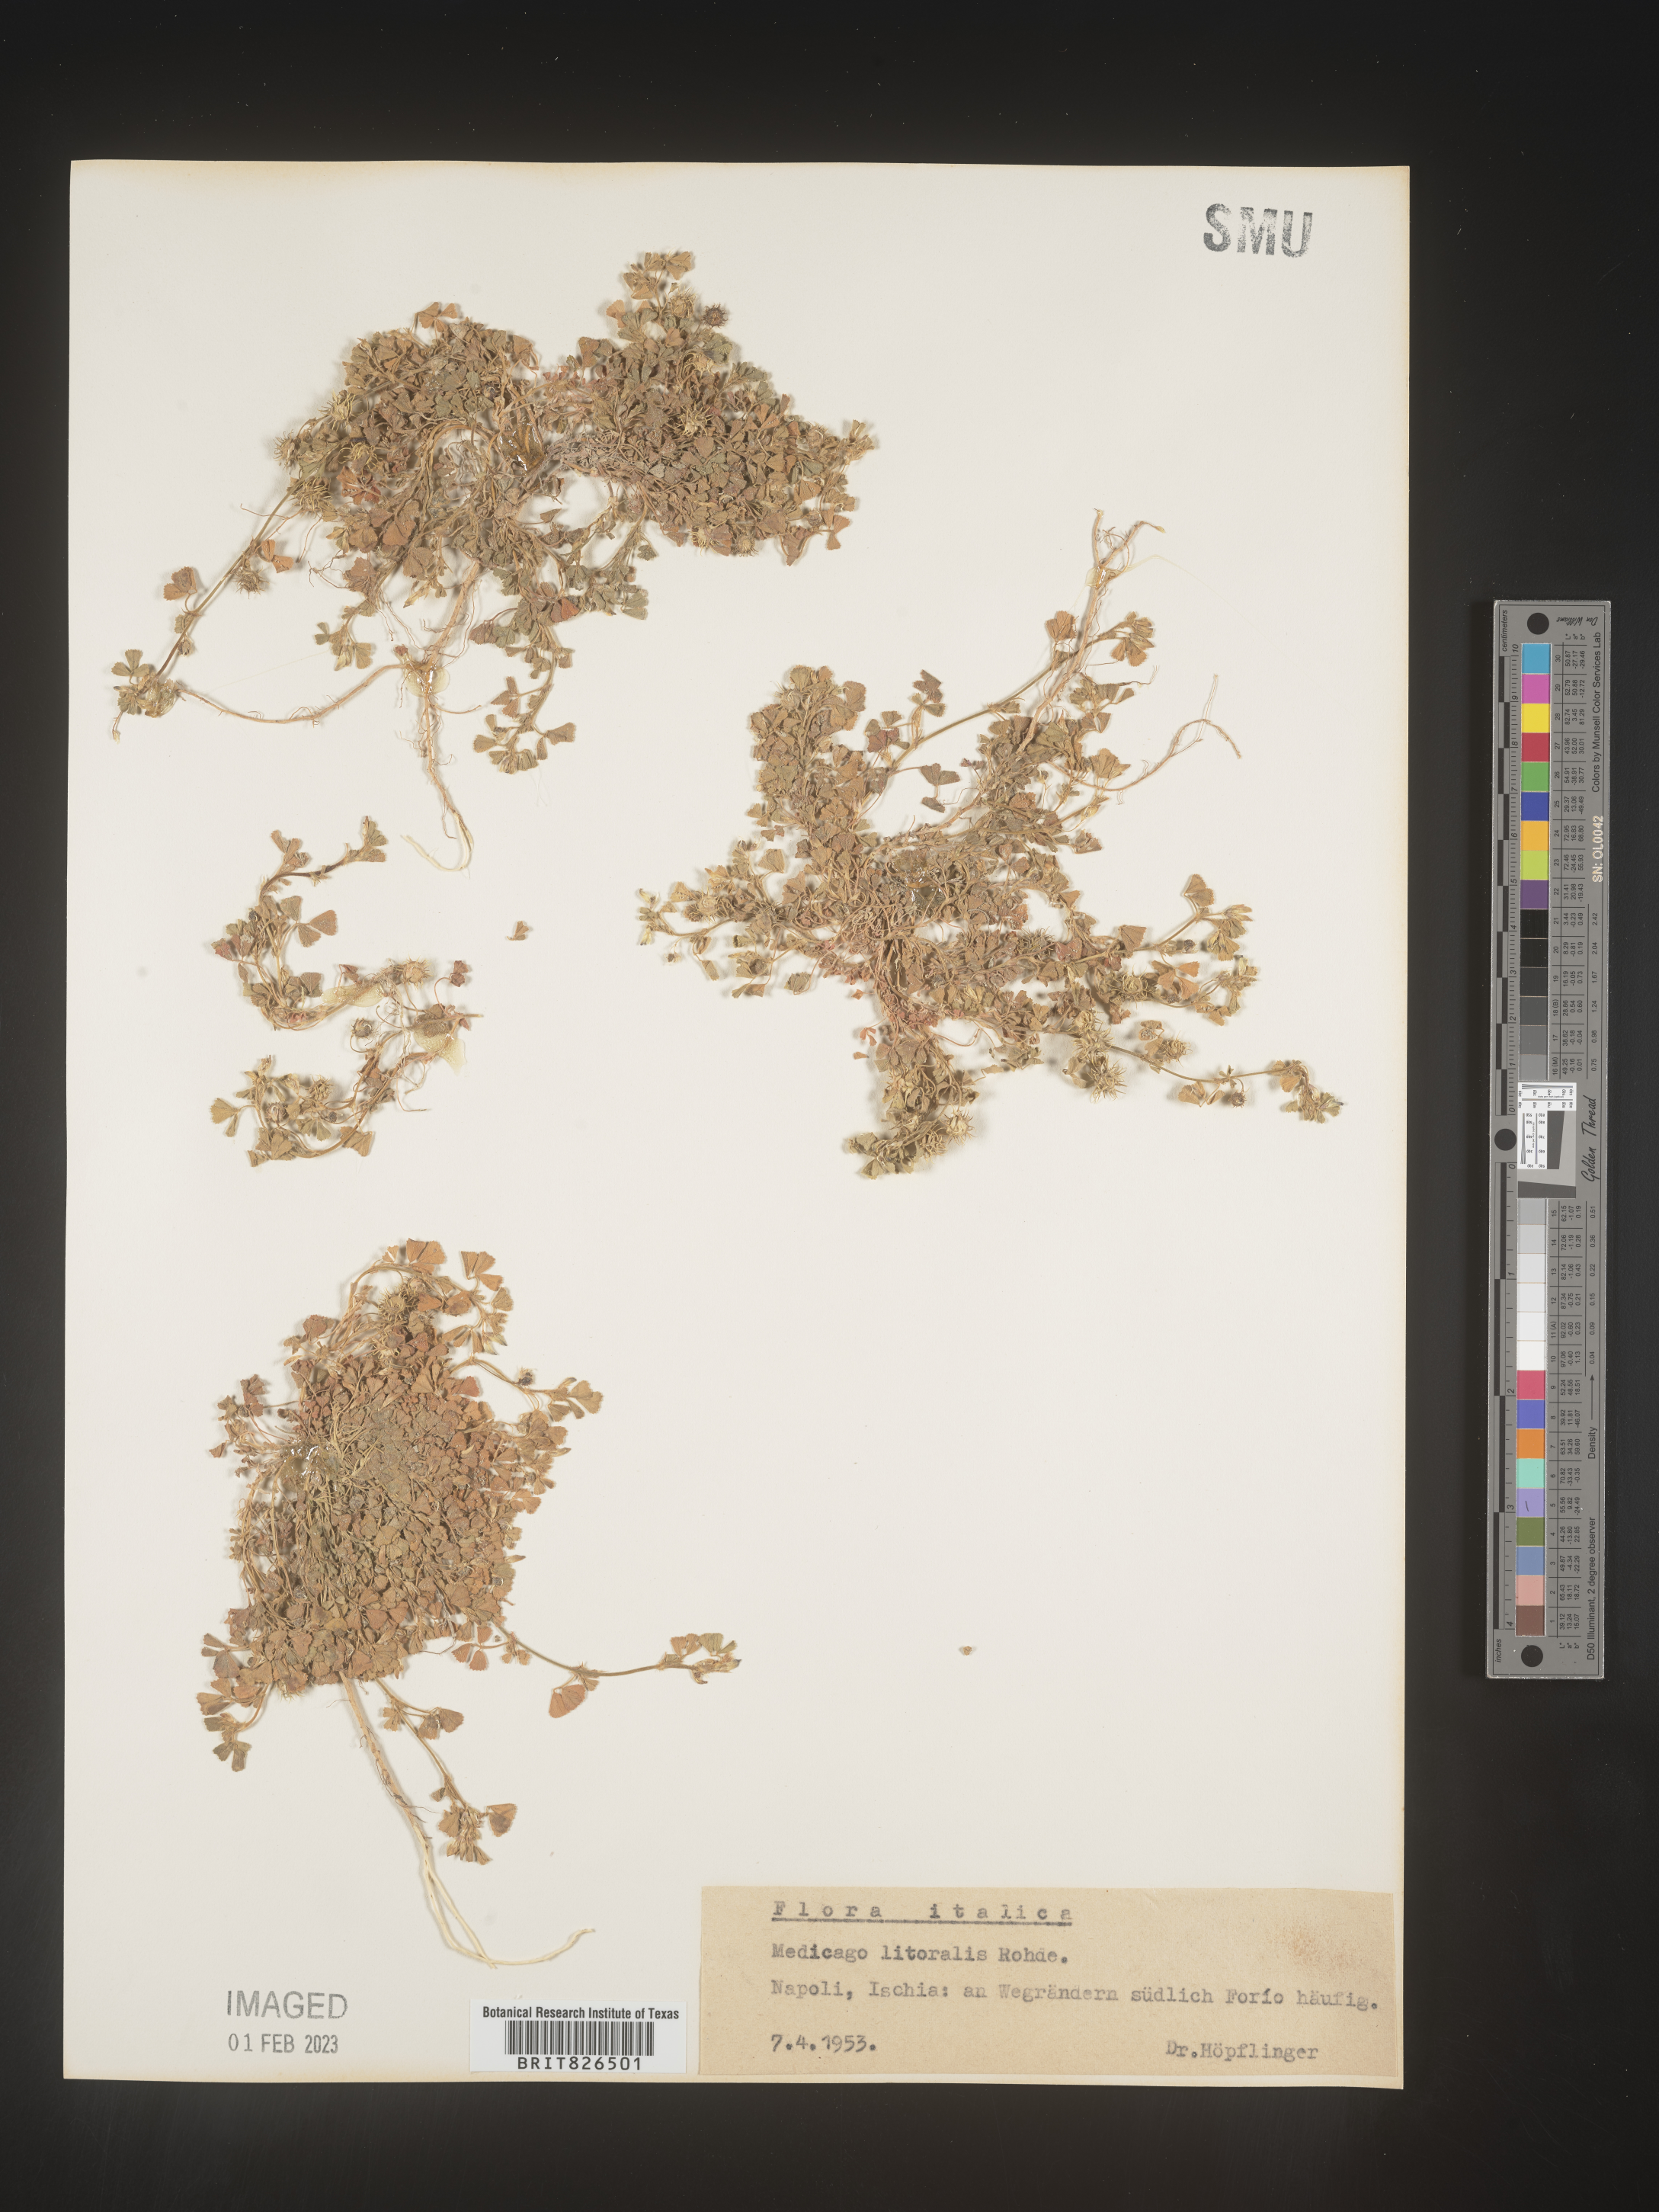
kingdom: Plantae
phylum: Tracheophyta
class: Magnoliopsida
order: Fabales
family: Fabaceae
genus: Medicago
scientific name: Medicago
